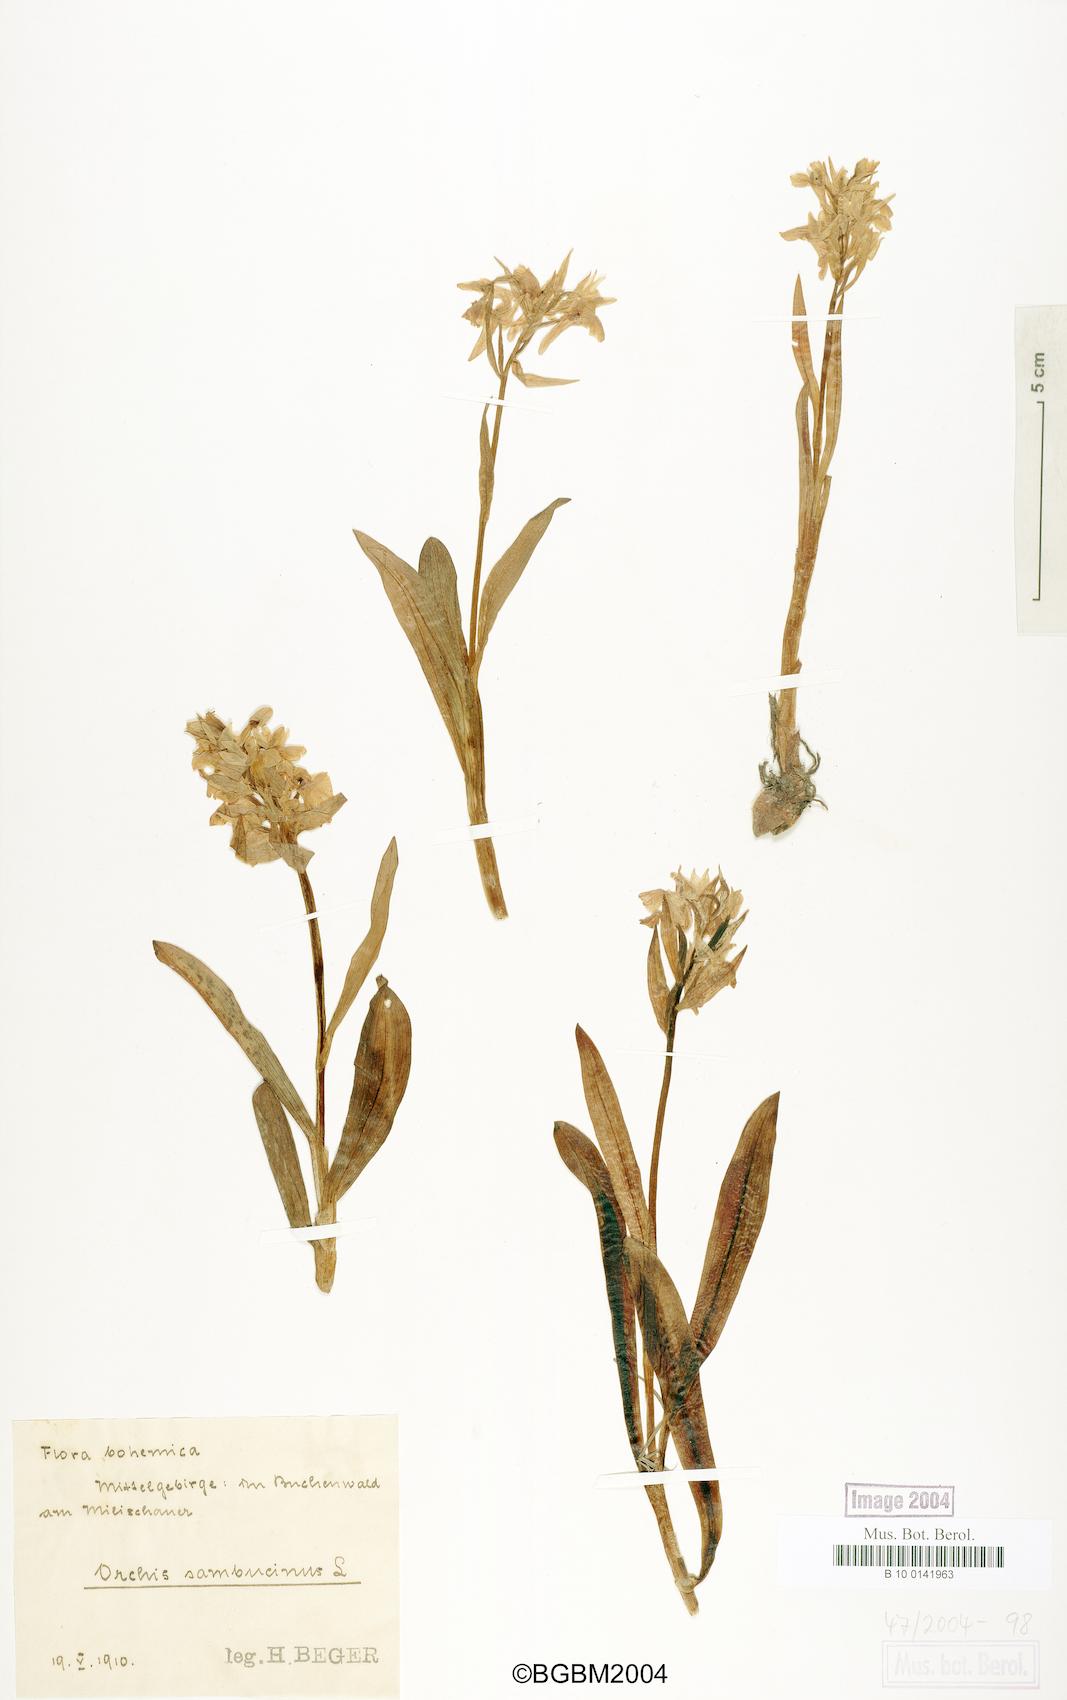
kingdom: Plantae
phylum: Tracheophyta
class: Liliopsida
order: Asparagales
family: Orchidaceae
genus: Dactylorhiza
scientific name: Dactylorhiza sambucina
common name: Elder-flowered orchid
